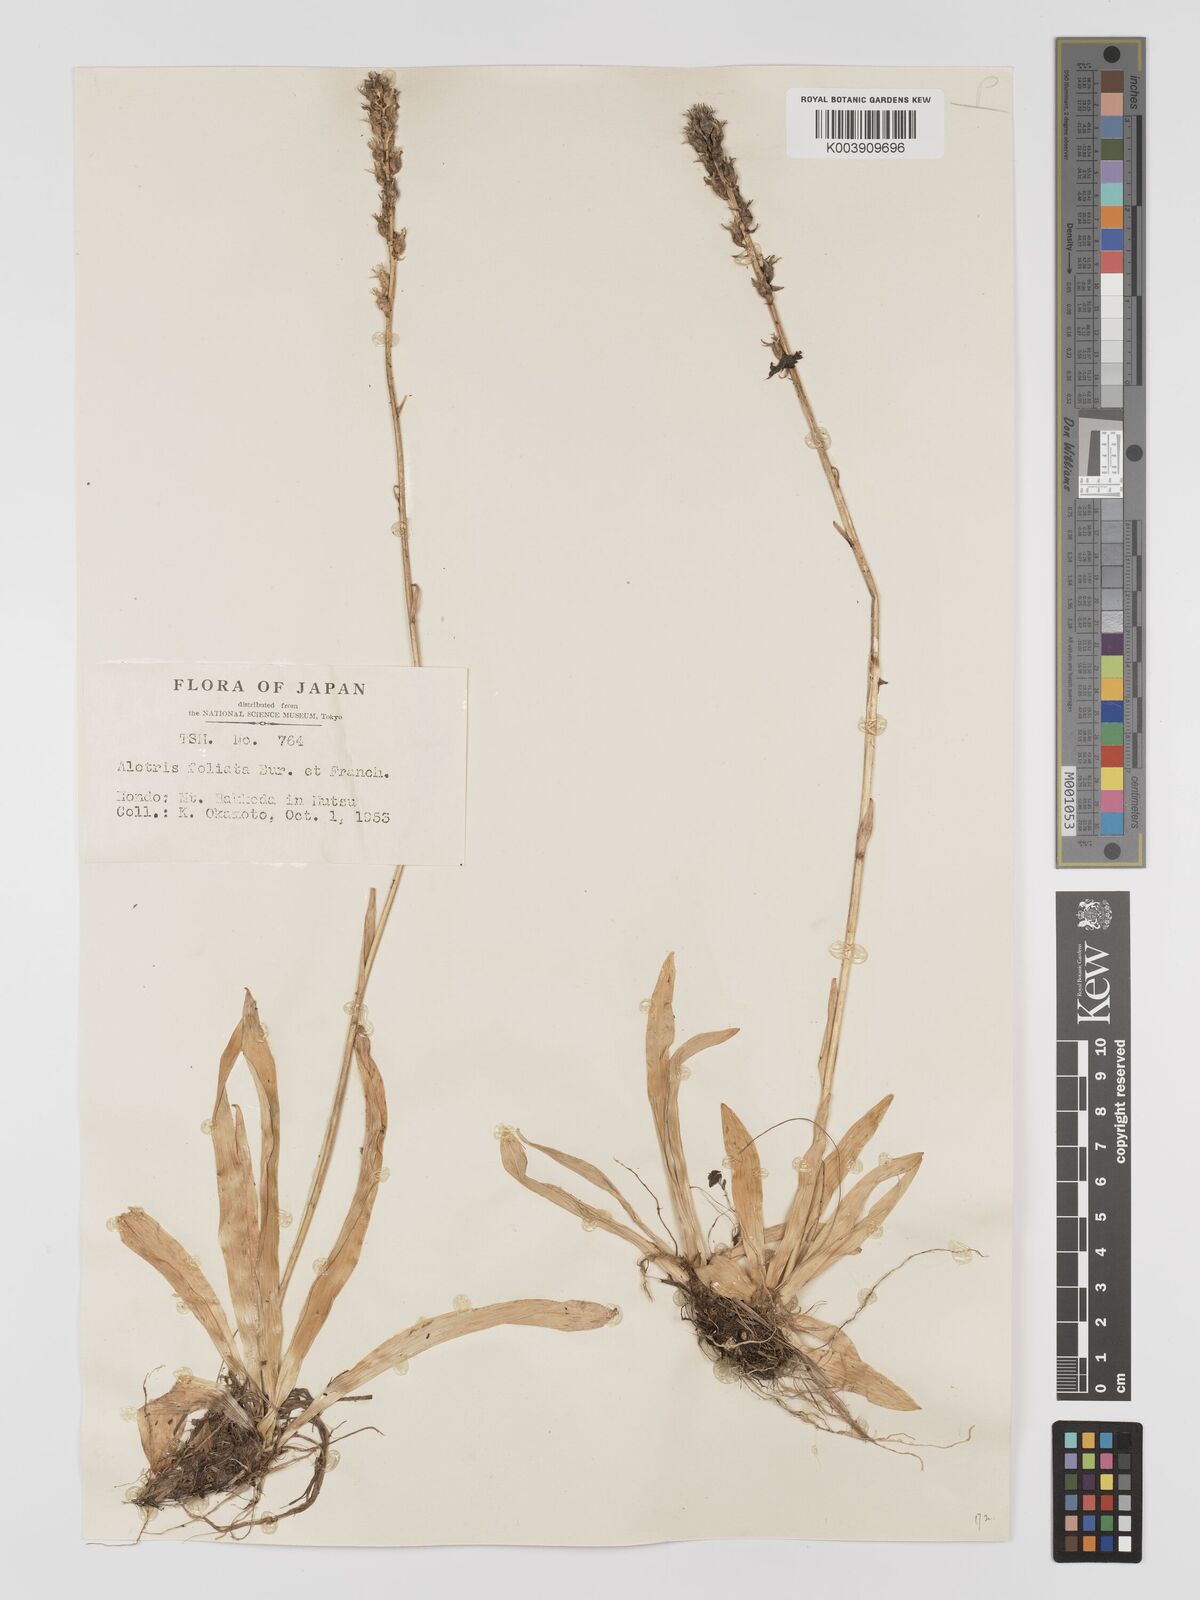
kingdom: Plantae
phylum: Tracheophyta
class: Liliopsida
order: Dioscoreales
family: Nartheciaceae
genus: Aletris
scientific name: Aletris foliata
